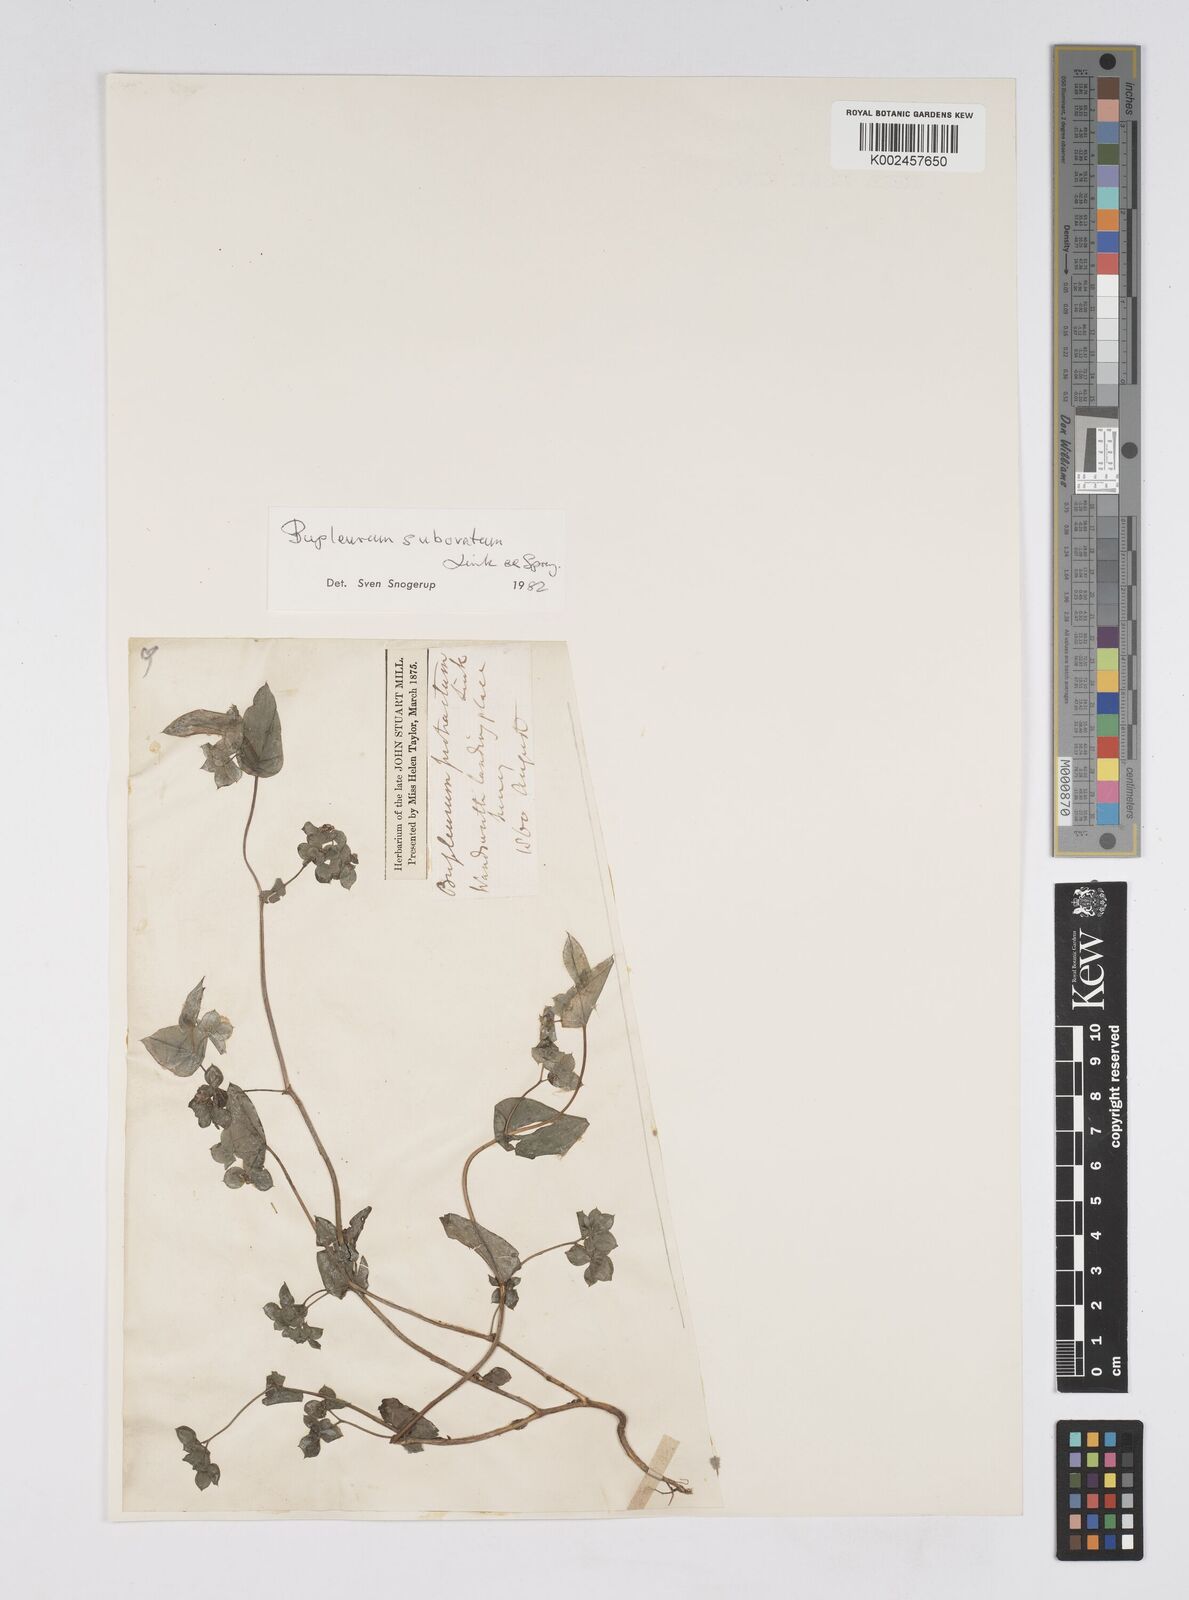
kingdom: Plantae
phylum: Tracheophyta
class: Magnoliopsida
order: Apiales
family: Apiaceae
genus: Bupleurum
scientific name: Bupleurum subovatum
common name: False thorow-wax
